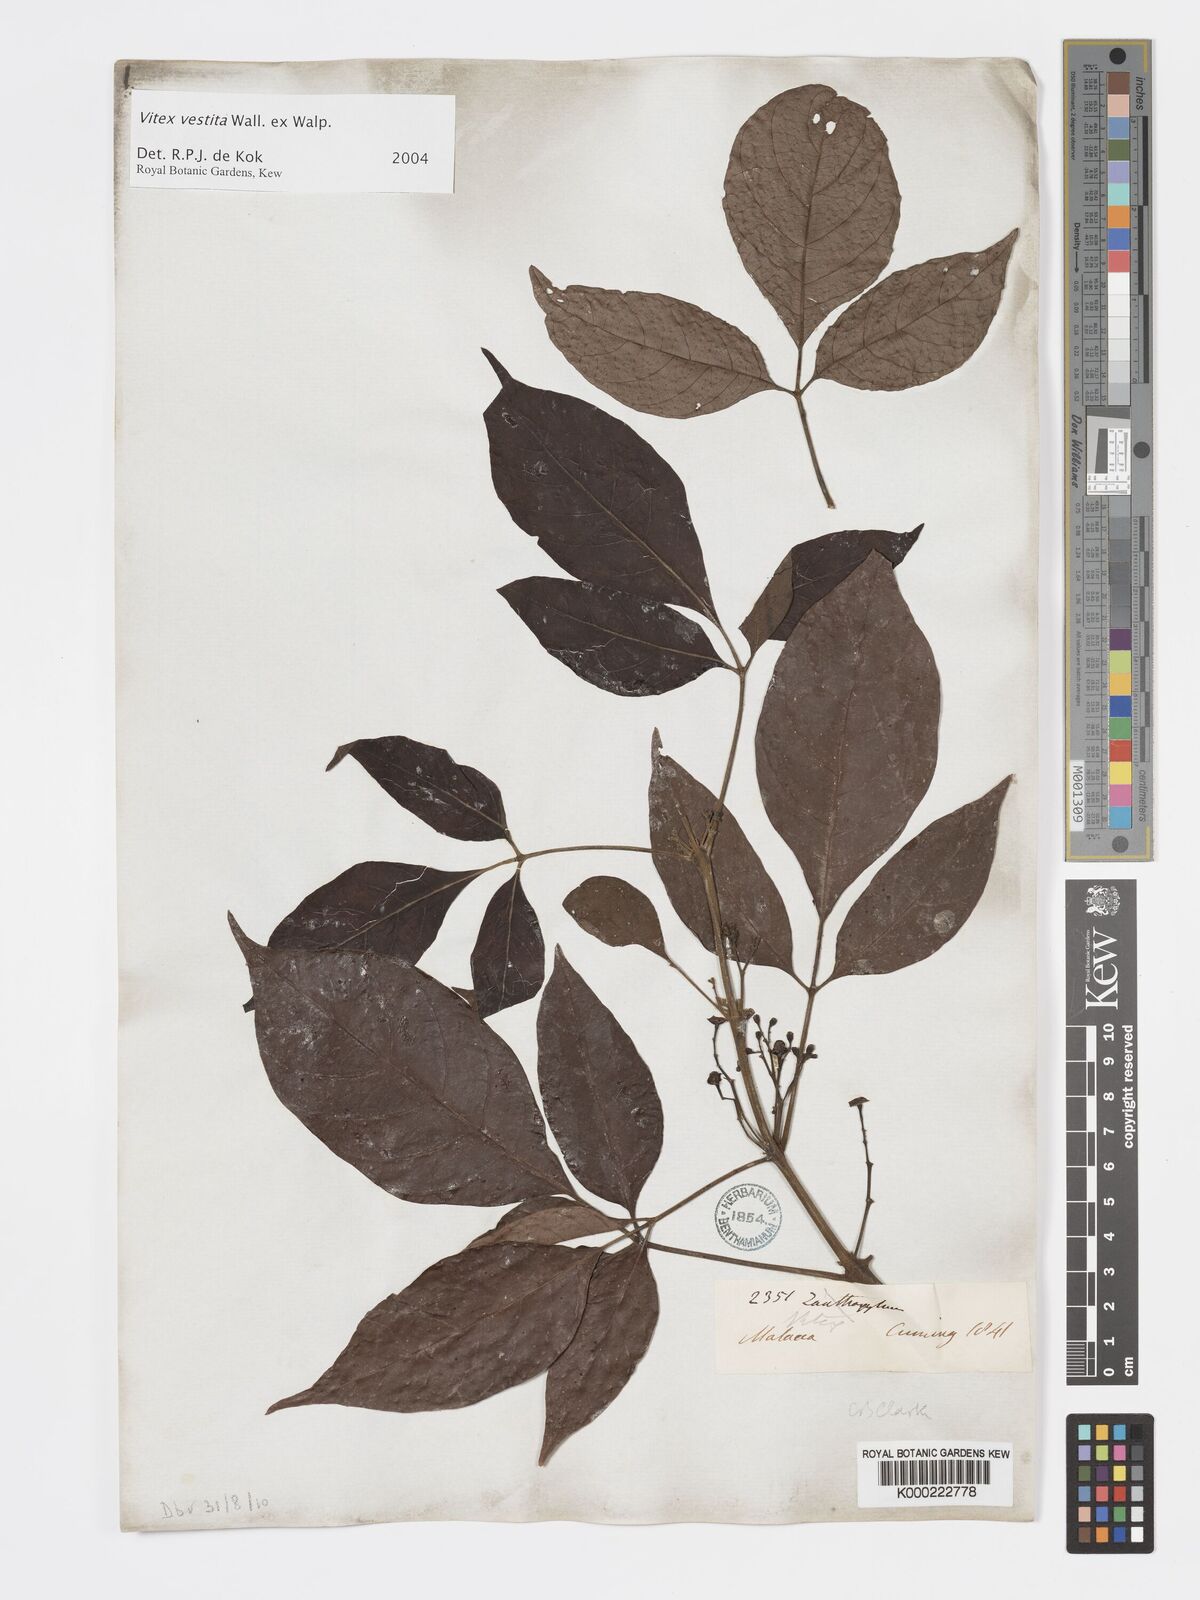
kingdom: Plantae
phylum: Tracheophyta
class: Magnoliopsida
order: Lamiales
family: Lamiaceae
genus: Vitex
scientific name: Vitex vestita
